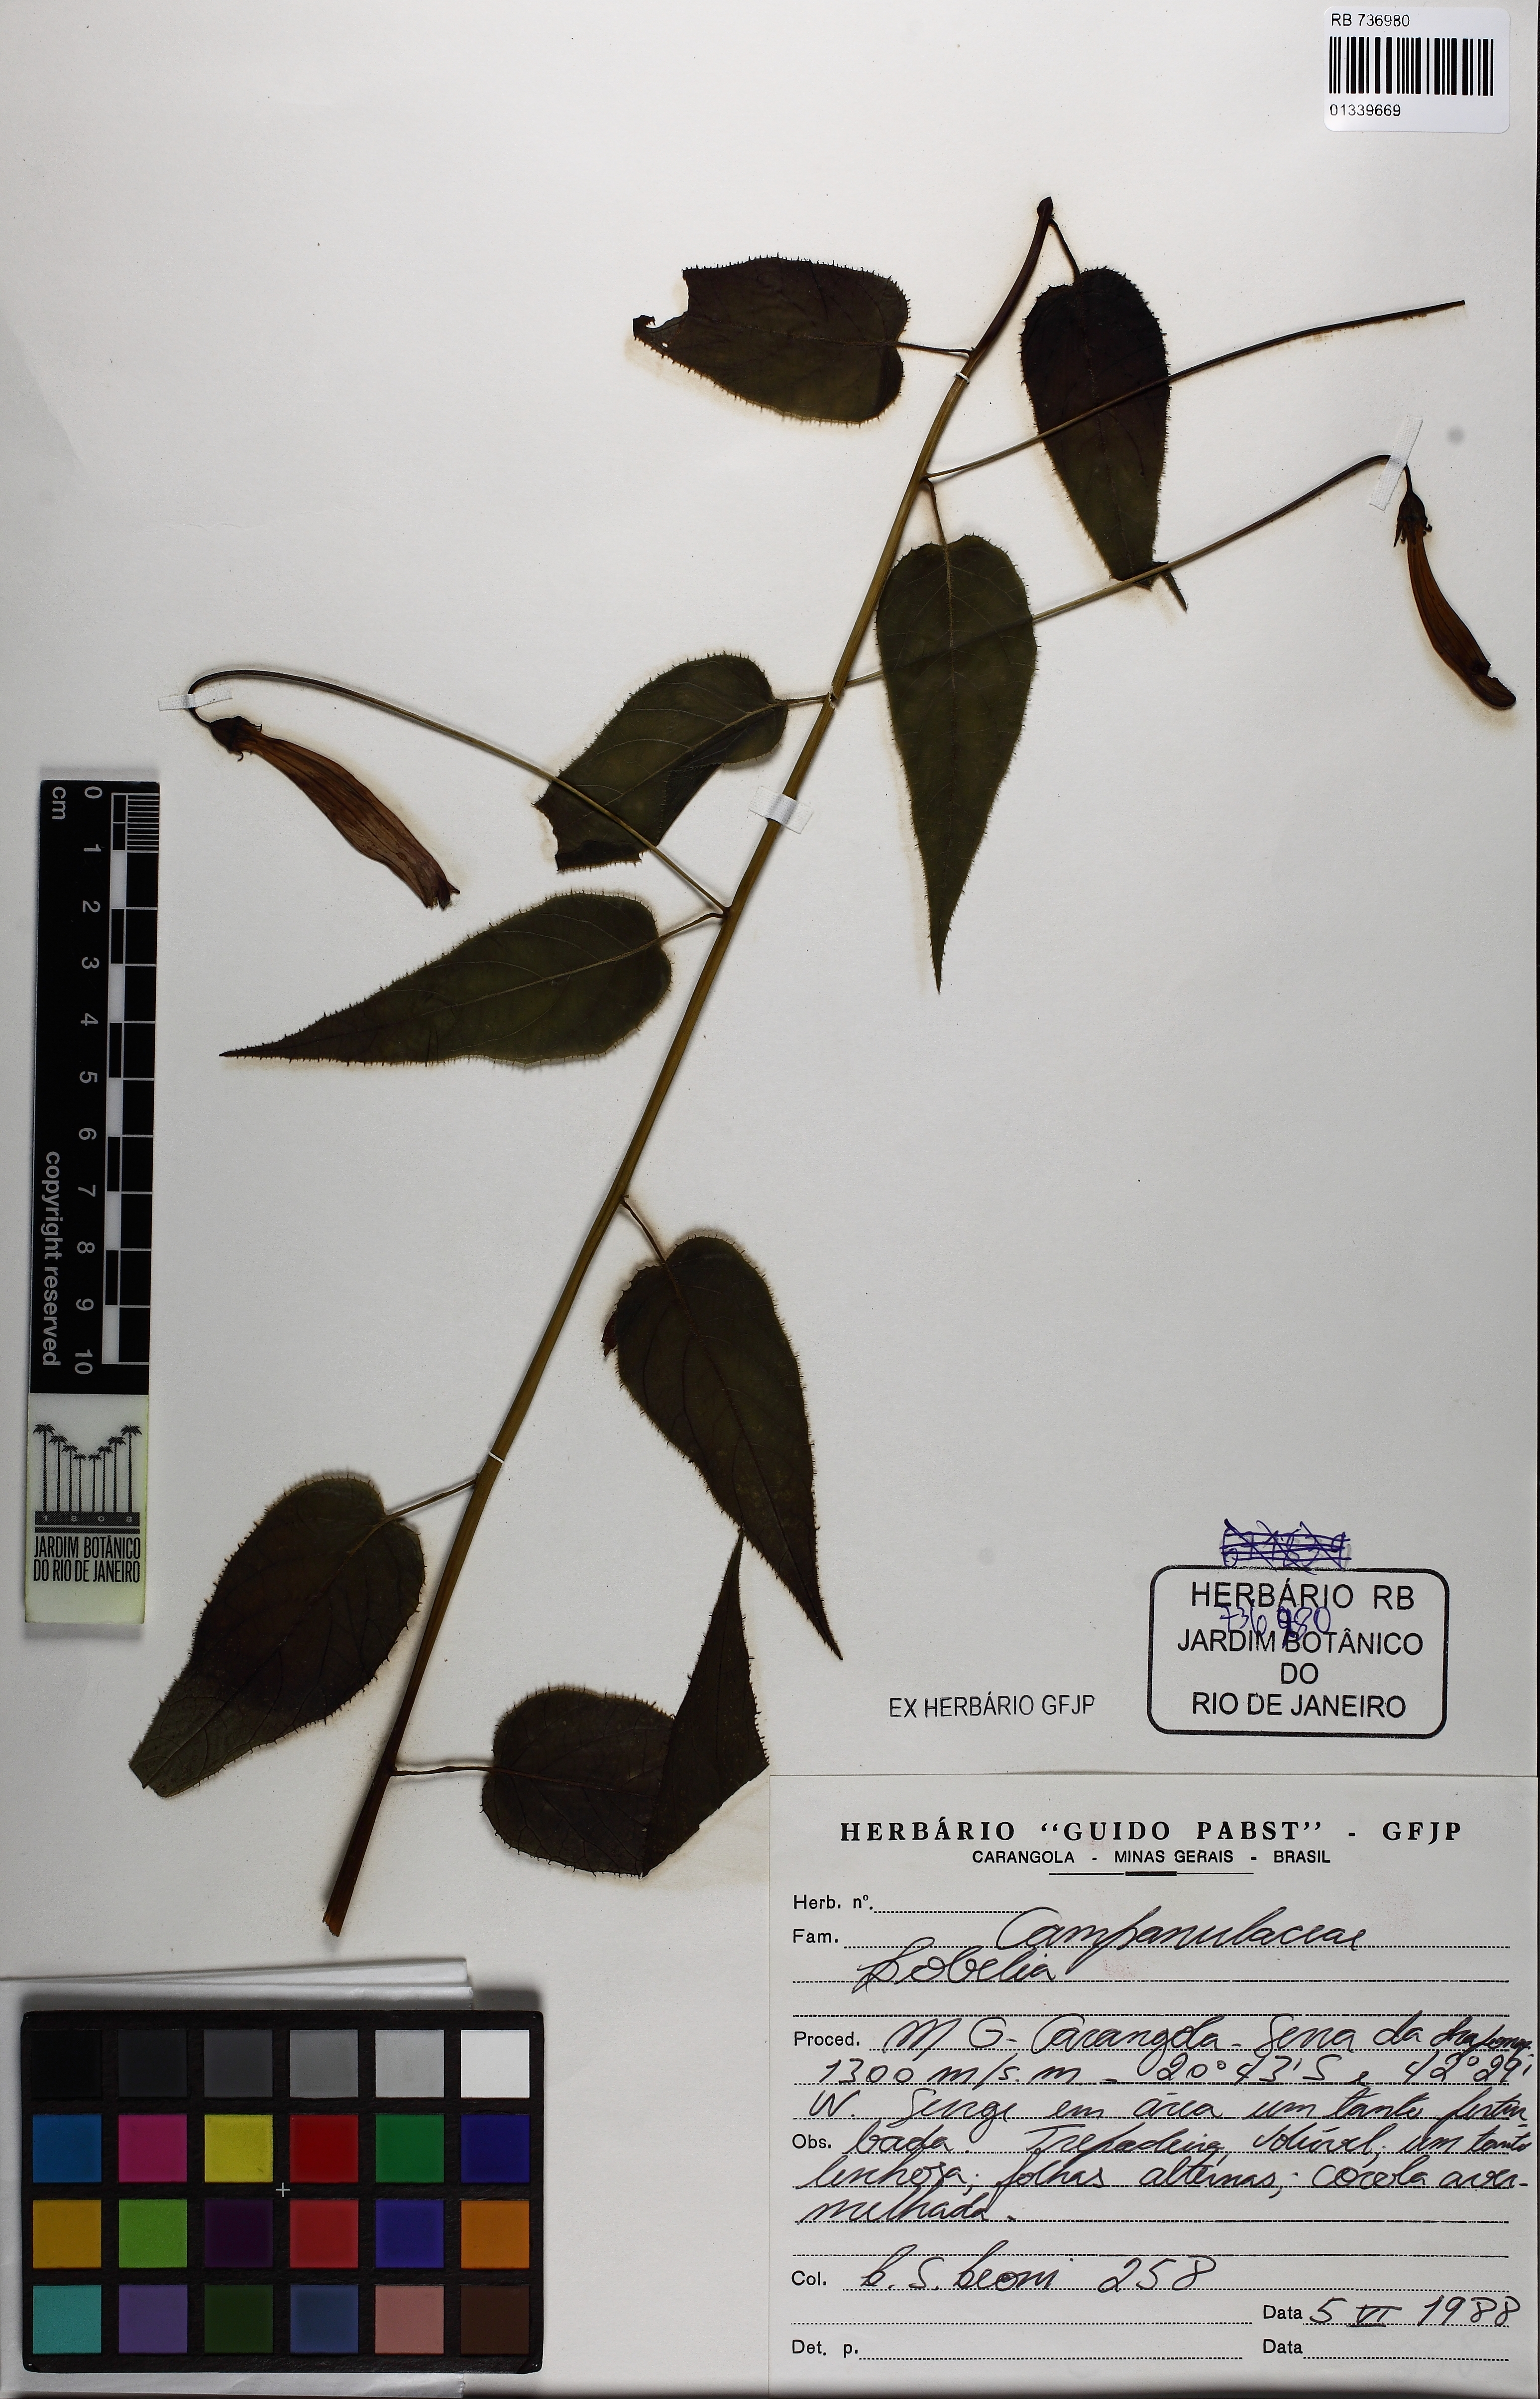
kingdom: Plantae
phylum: Tracheophyta
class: Magnoliopsida
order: Asterales
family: Campanulaceae
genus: Siphocampylus
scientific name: Siphocampylus longipedunculatus
